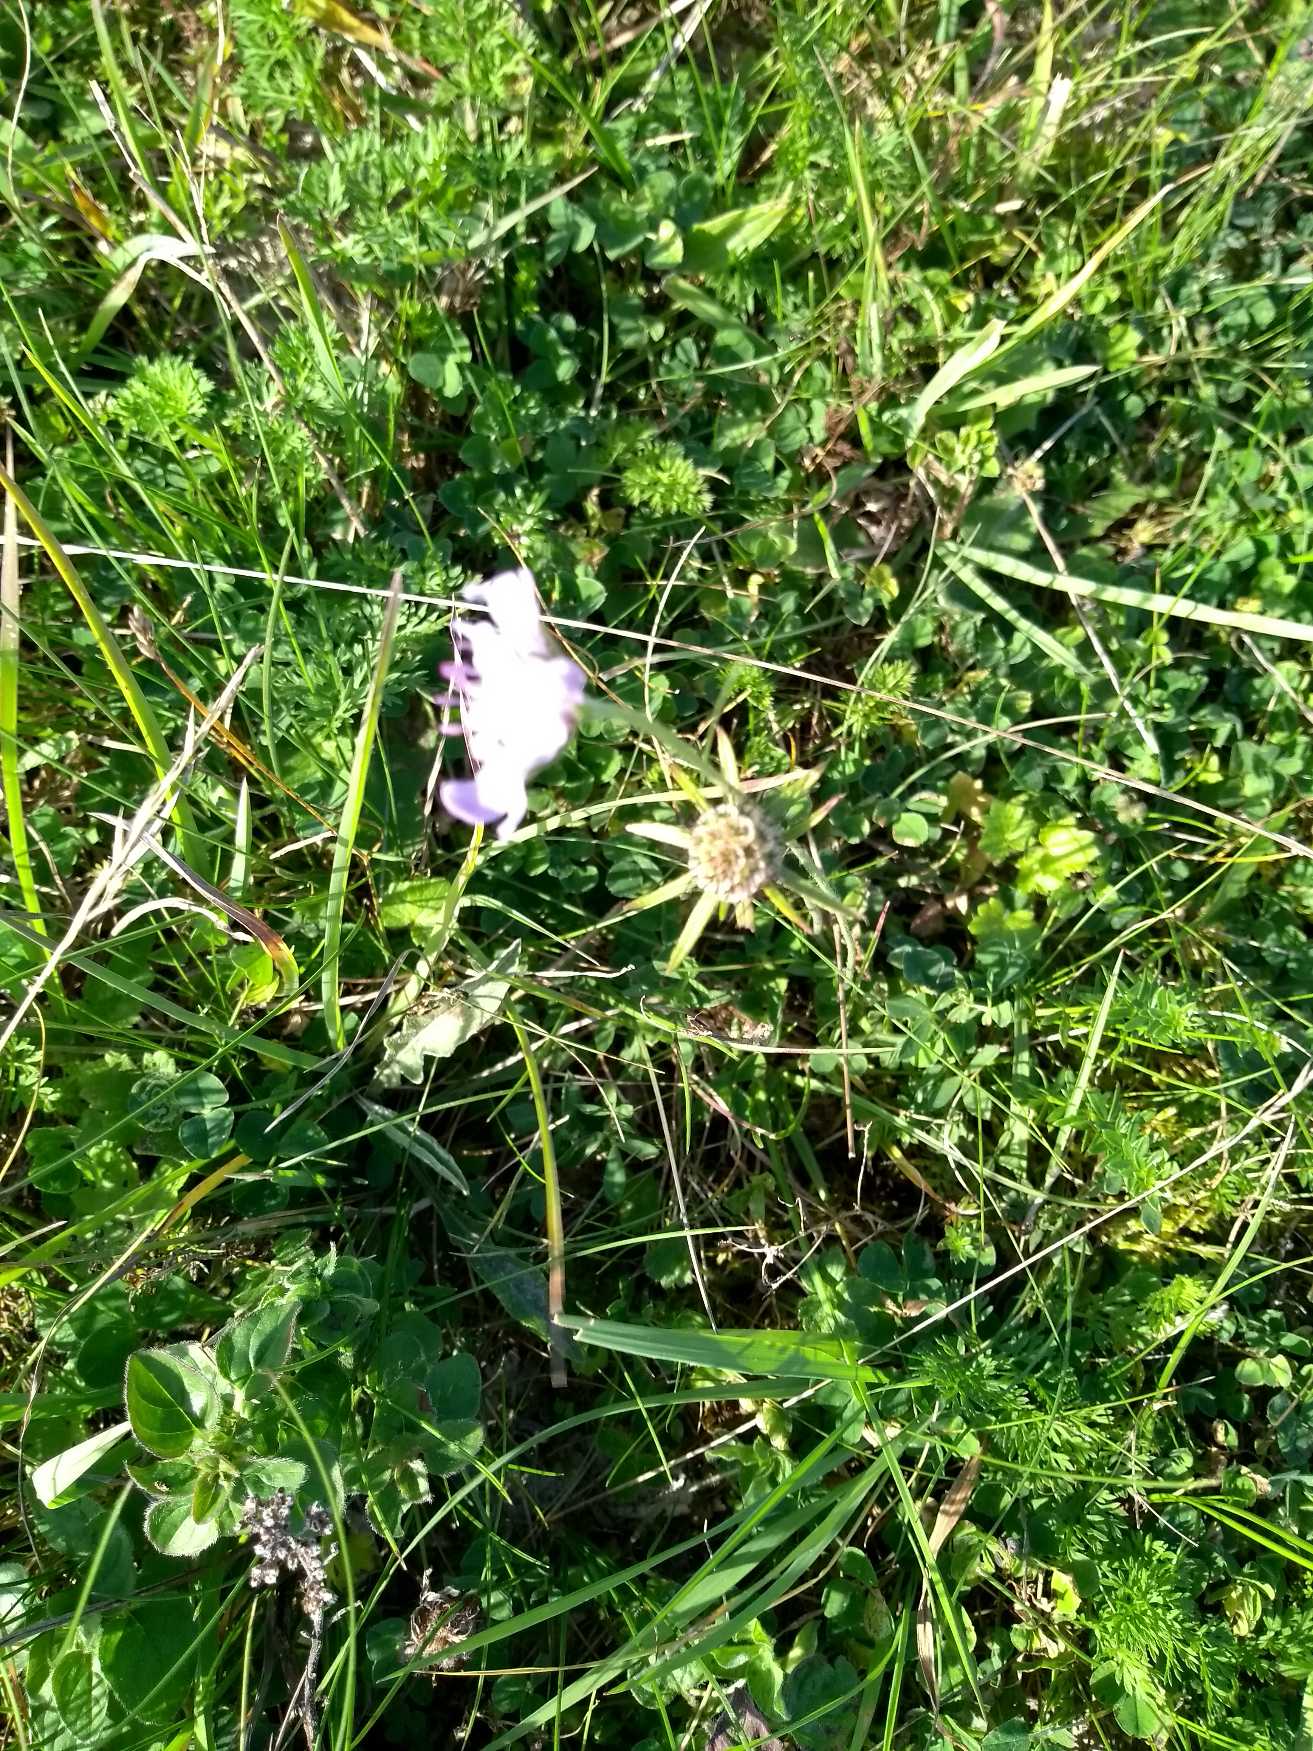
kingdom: Plantae
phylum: Tracheophyta
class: Magnoliopsida
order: Dipsacales
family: Caprifoliaceae
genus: Scabiosa
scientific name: Scabiosa columbaria
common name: Due-skabiose
